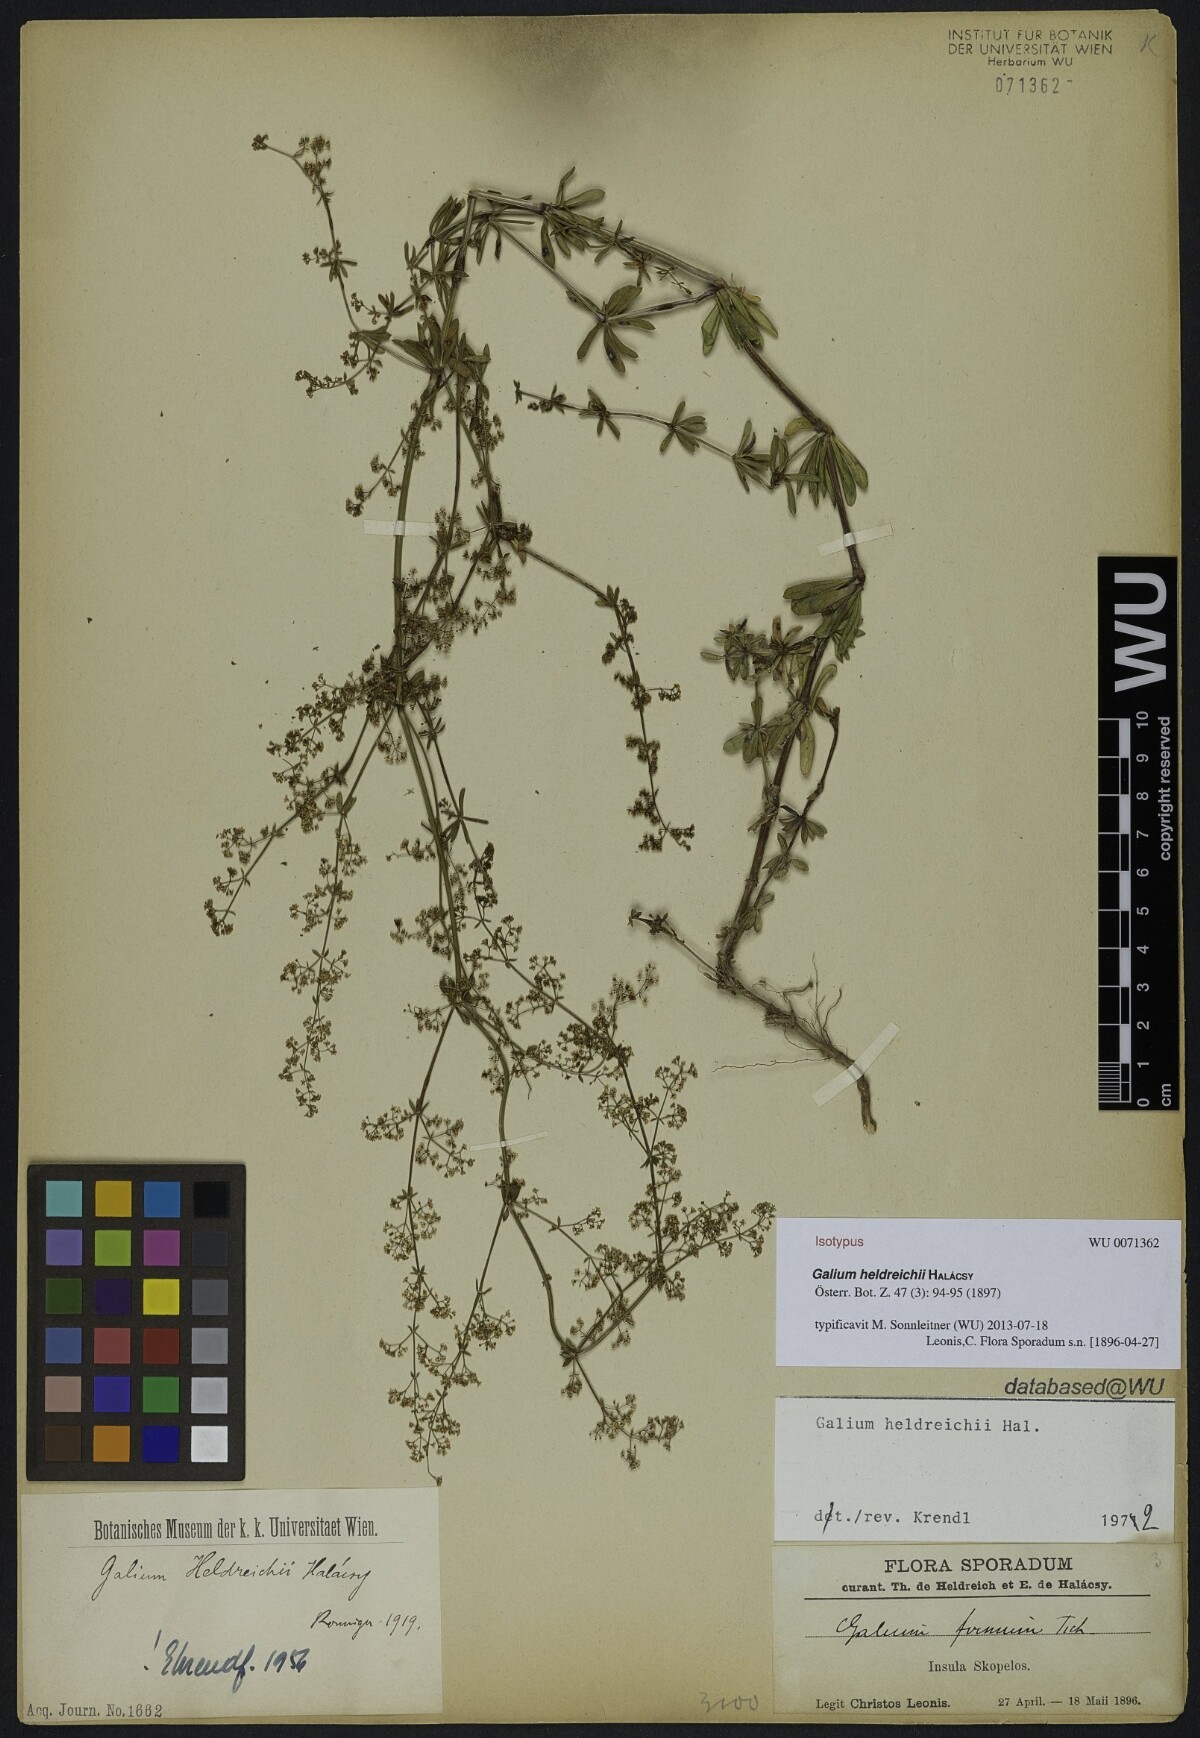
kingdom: Plantae
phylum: Tracheophyta
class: Magnoliopsida
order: Gentianales
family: Rubiaceae
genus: Galium
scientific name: Galium heldreichii
